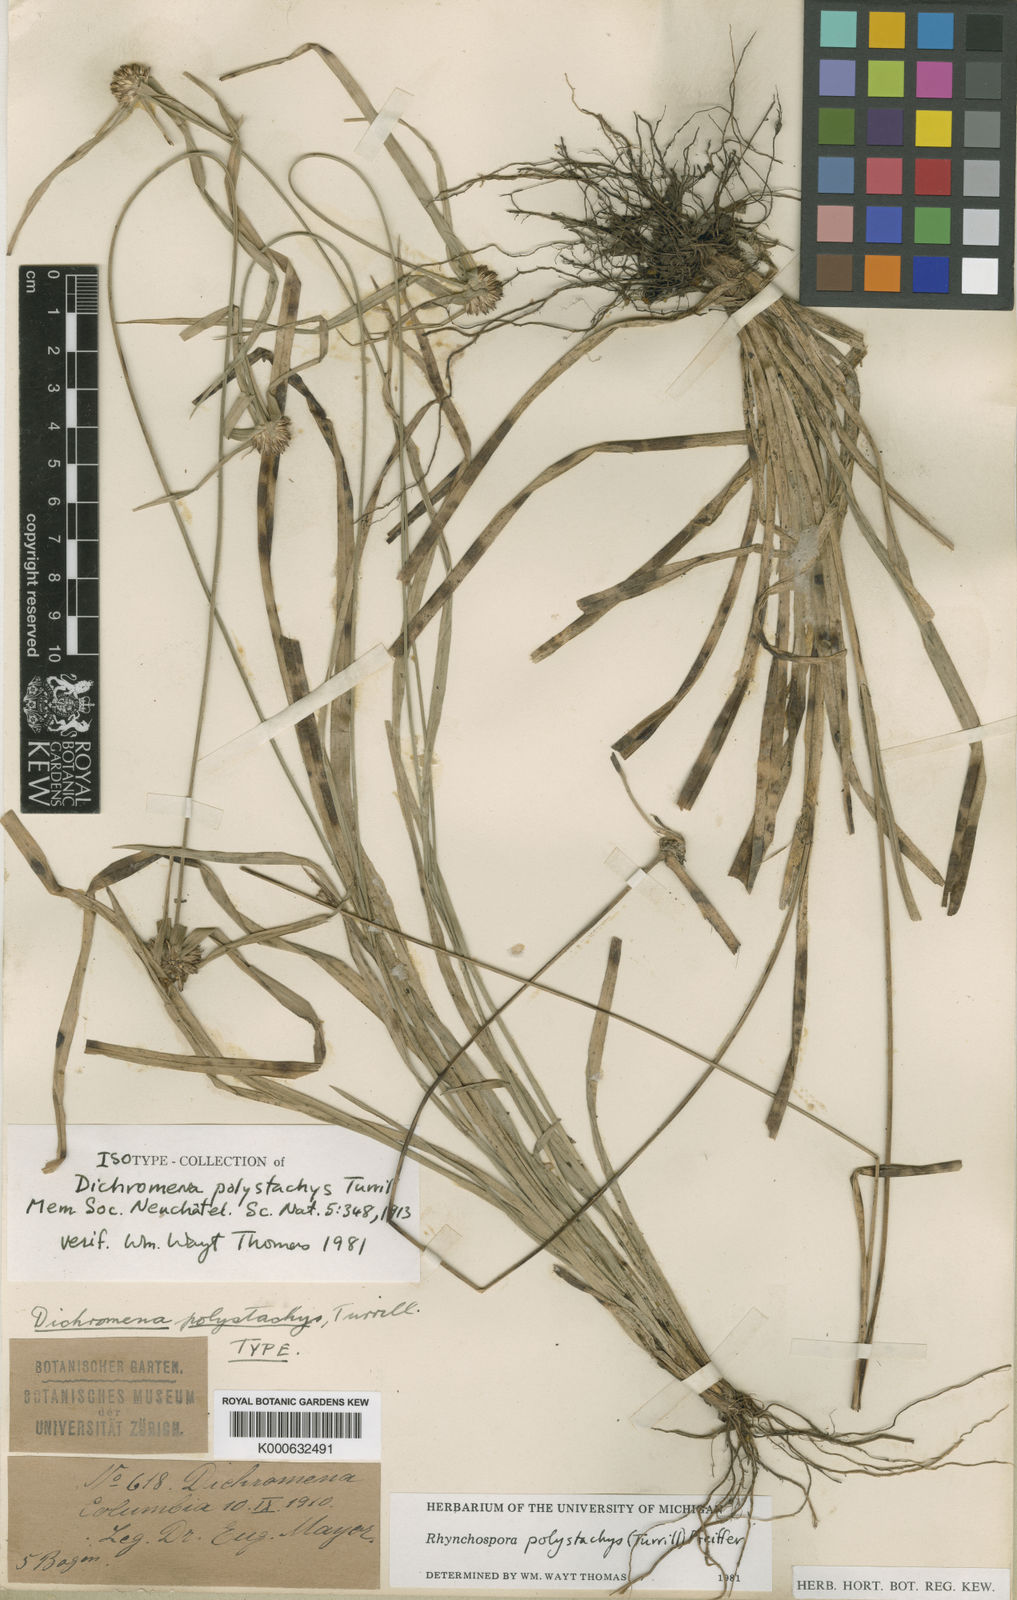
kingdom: Plantae
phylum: Tracheophyta
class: Liliopsida
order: Poales
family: Cyperaceae
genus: Rhynchospora
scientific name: Rhynchospora polystachys
